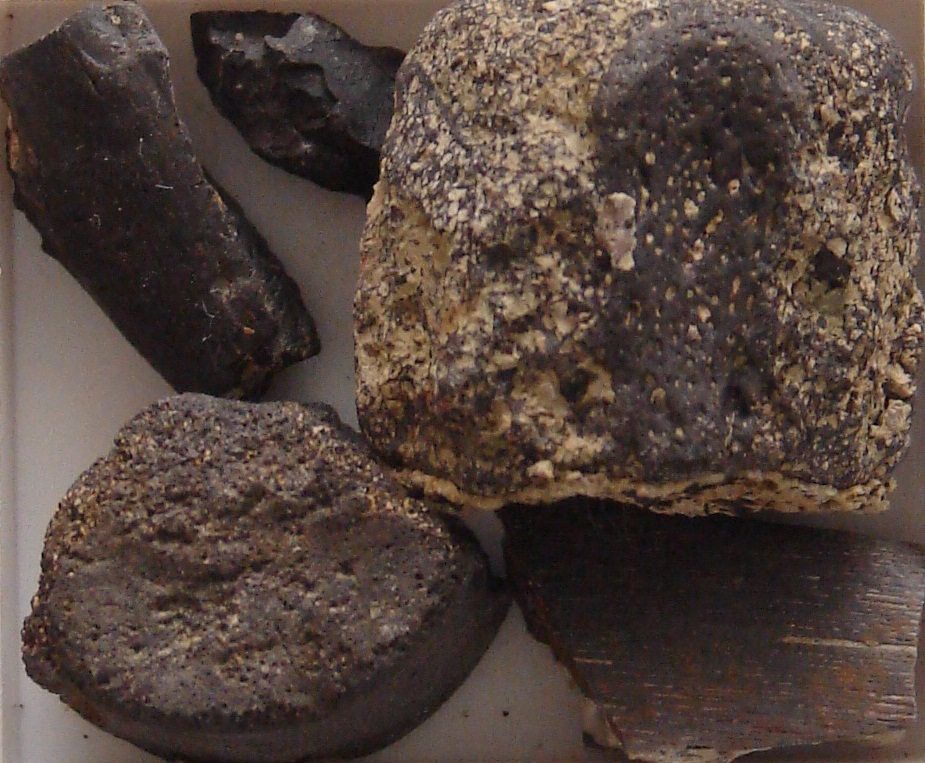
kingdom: Animalia
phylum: Chordata
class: Amphibia
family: Plagiosauridae
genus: Gerrothorax
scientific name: Gerrothorax
